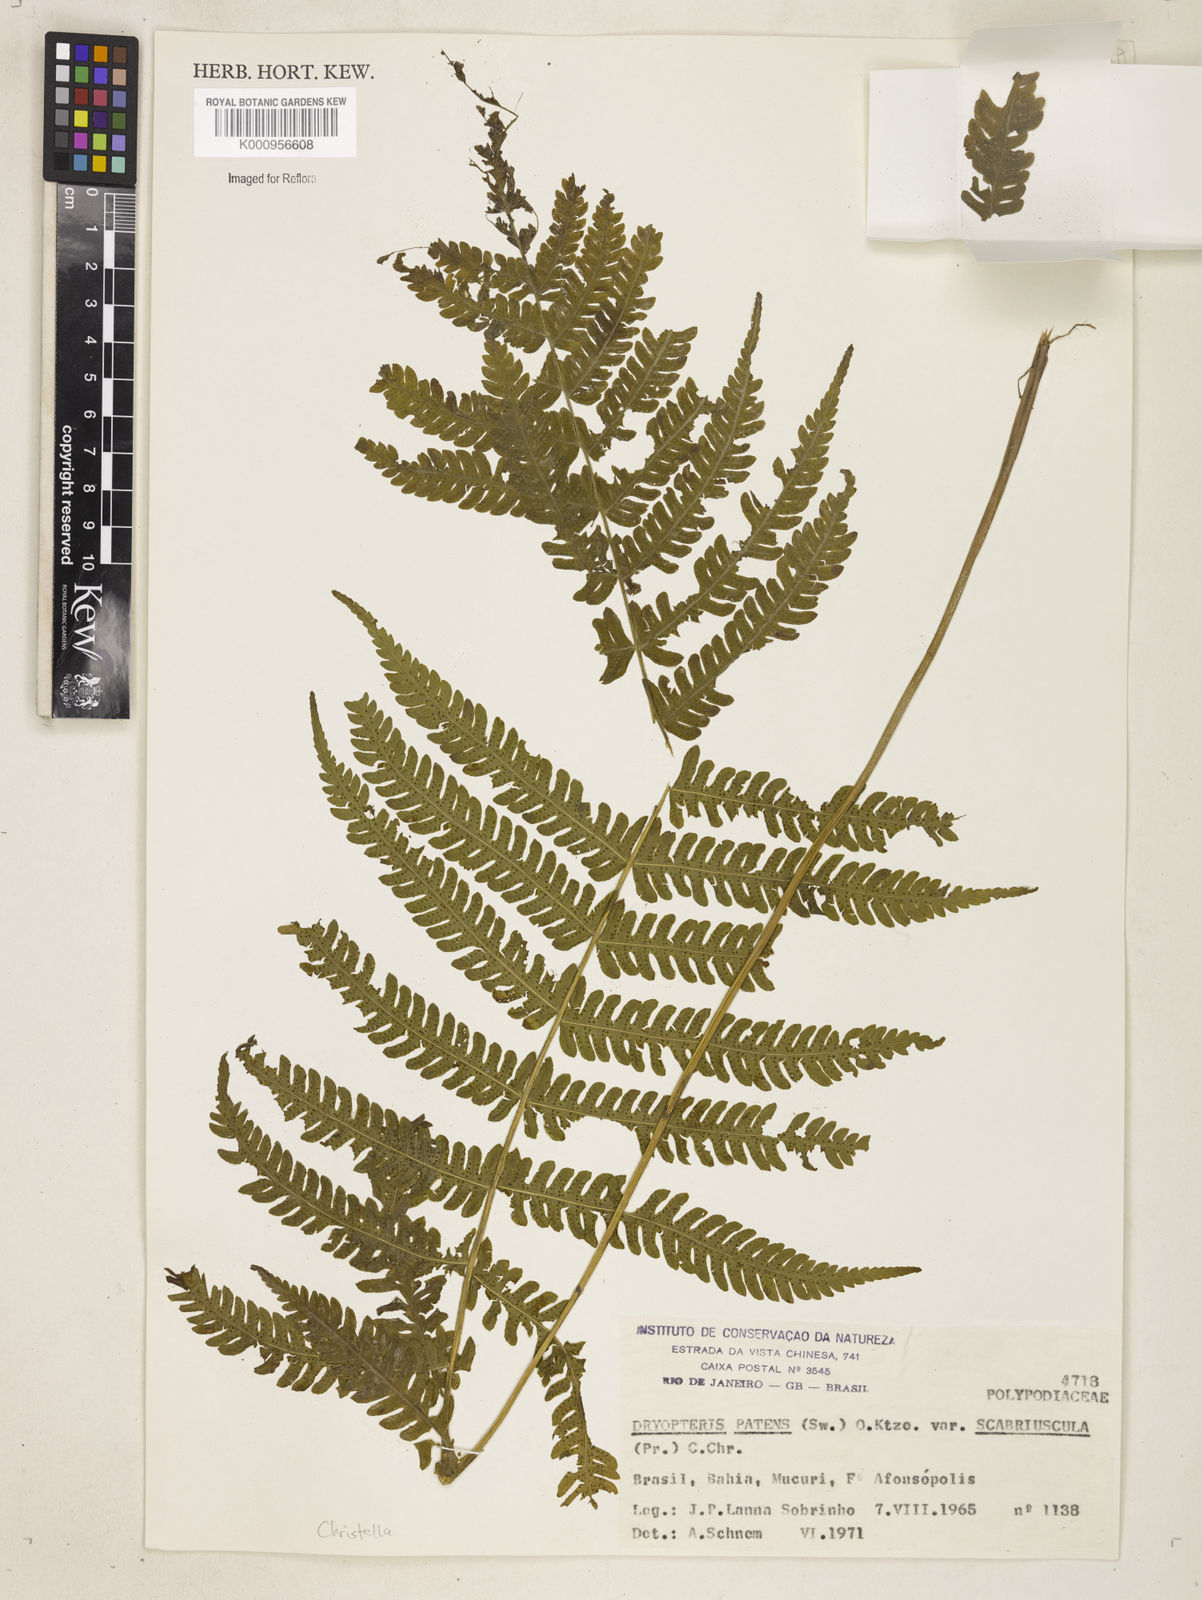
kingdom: Plantae
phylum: Tracheophyta
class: Polypodiopsida
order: Polypodiales
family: Thelypteridaceae
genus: Pelazoneuron
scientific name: Pelazoneuron patens
